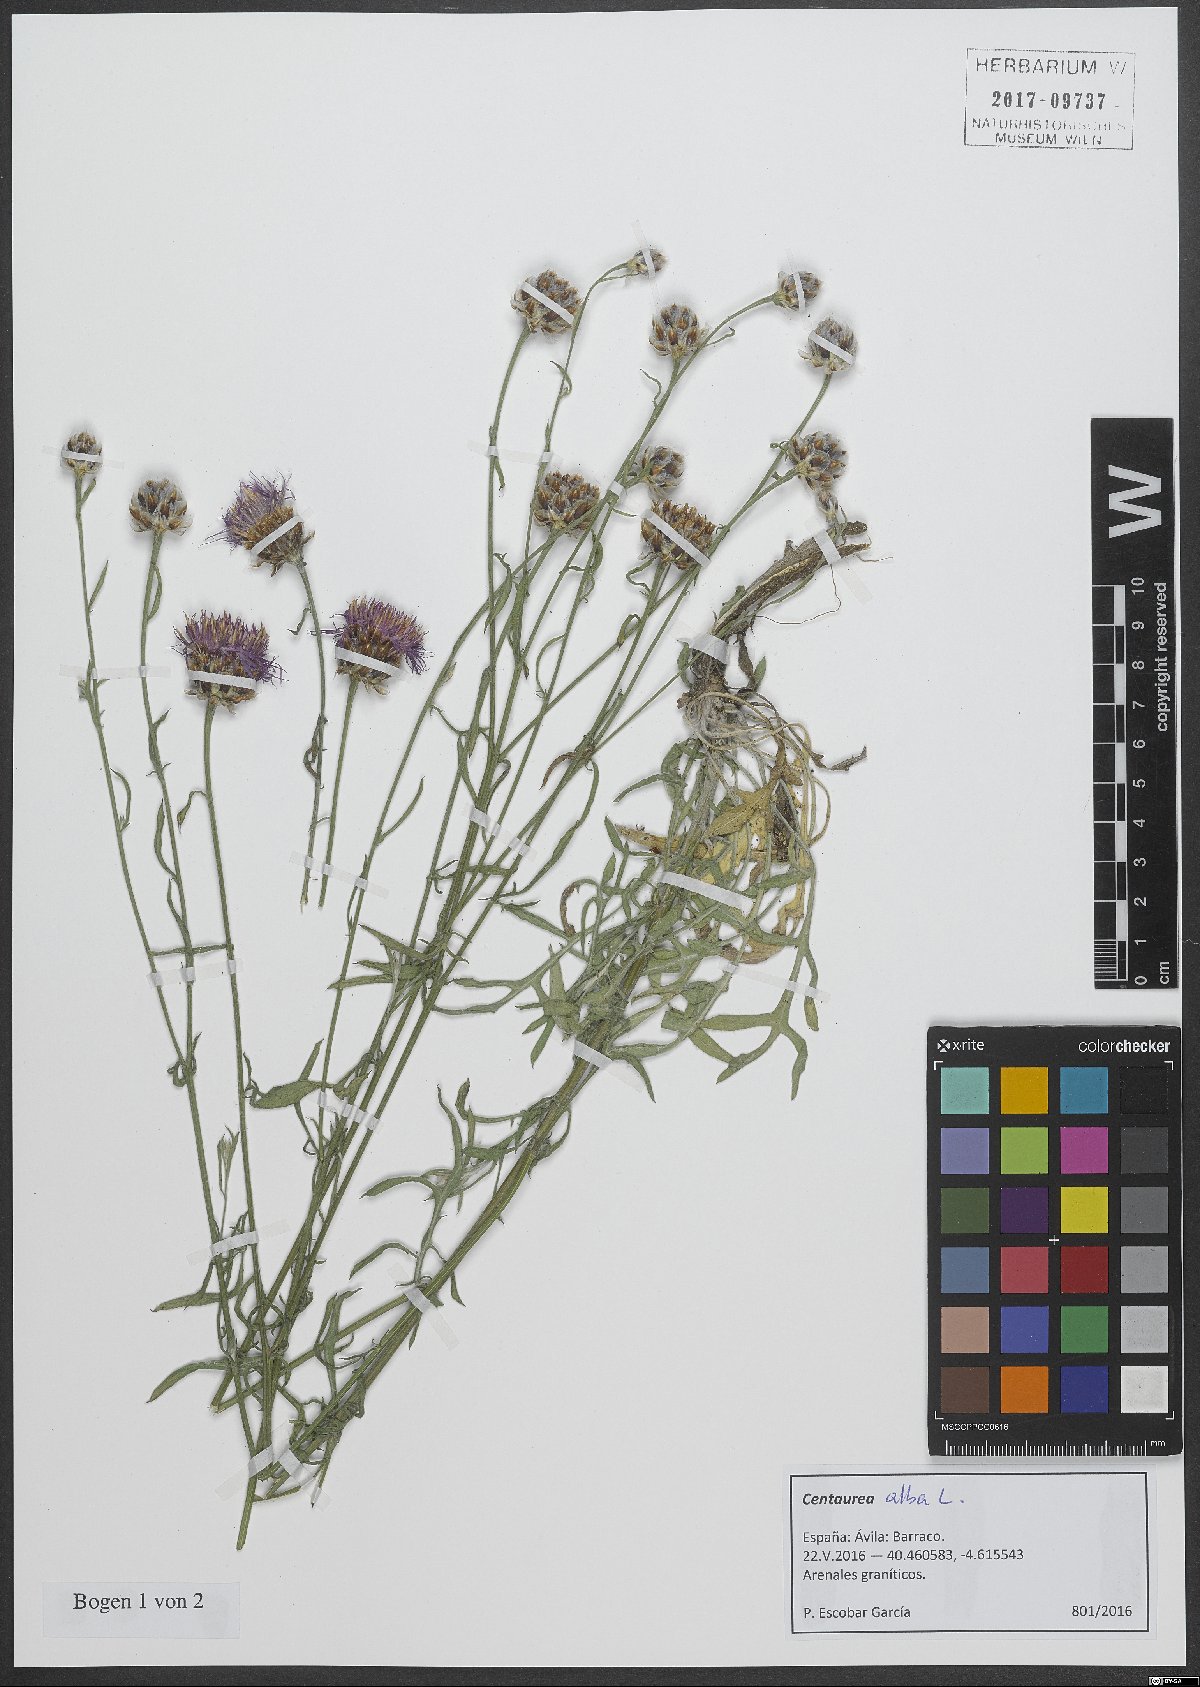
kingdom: Plantae
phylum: Tracheophyta
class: Magnoliopsida
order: Asterales
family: Asteraceae
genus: Centaurea
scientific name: Centaurea alba
